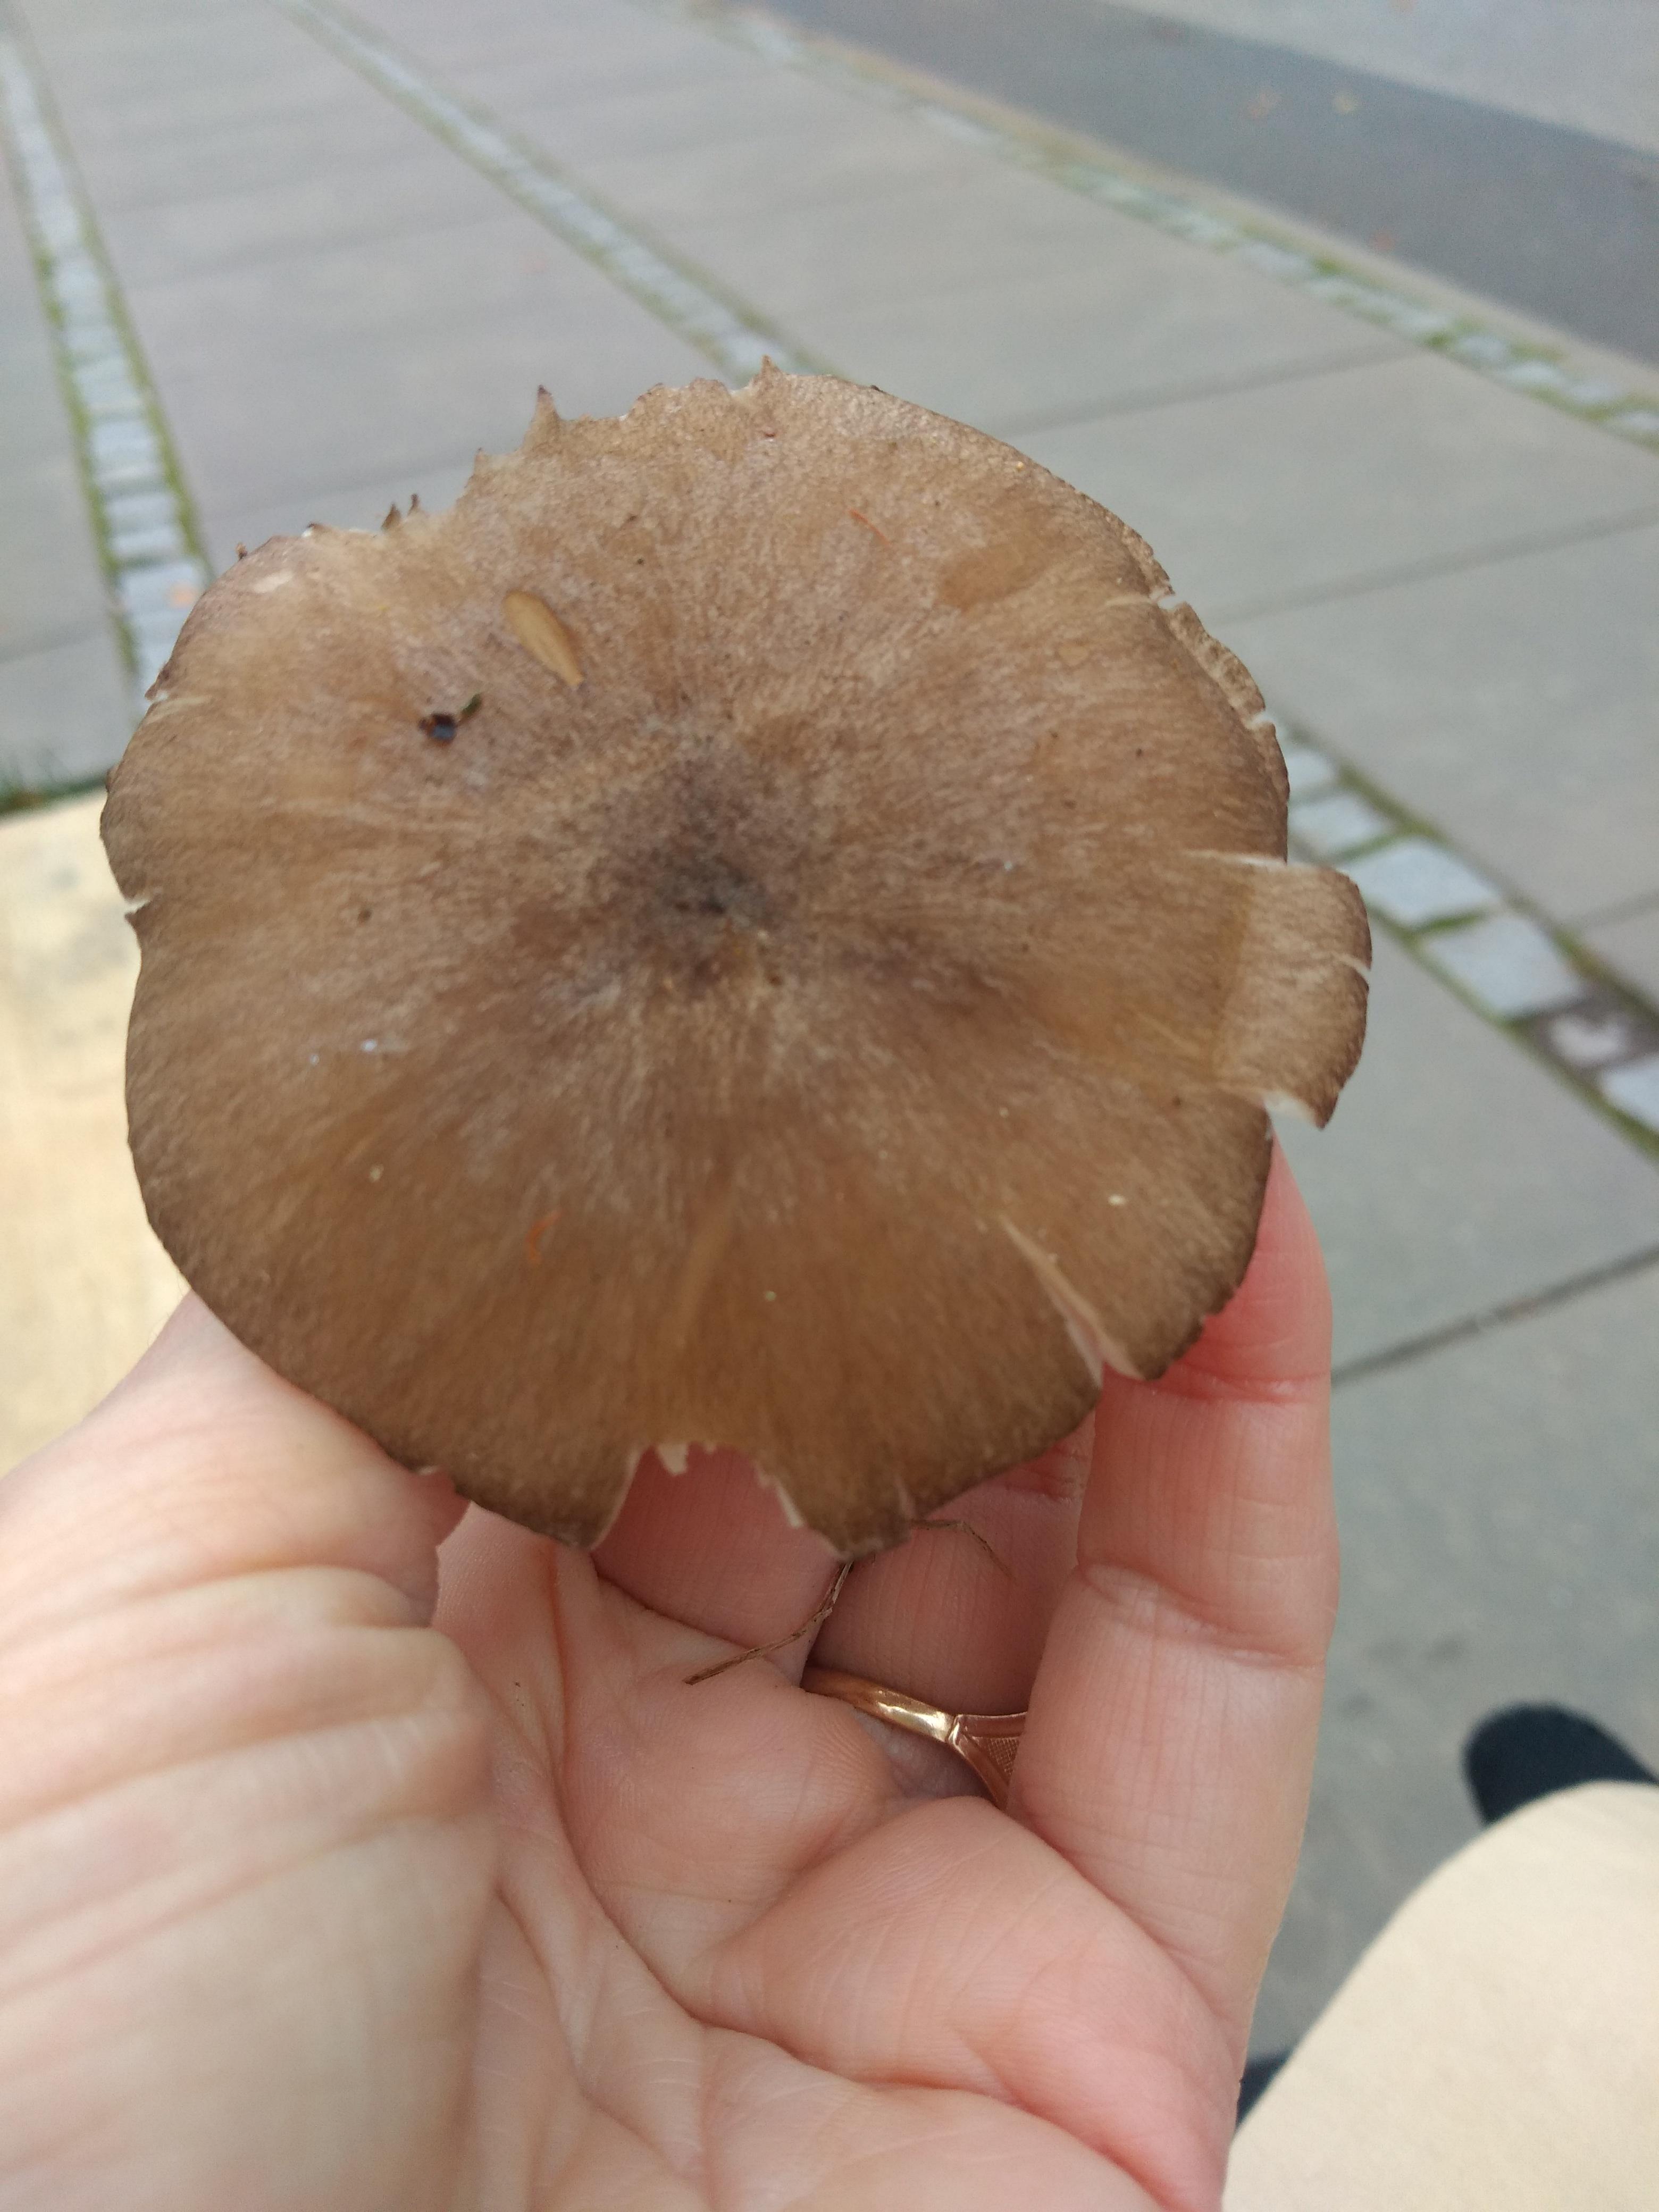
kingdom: Fungi
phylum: Basidiomycota
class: Agaricomycetes
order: Agaricales
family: Tricholomataceae
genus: Megacollybia
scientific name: Megacollybia platyphylla
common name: bredbladet væbnerhat
